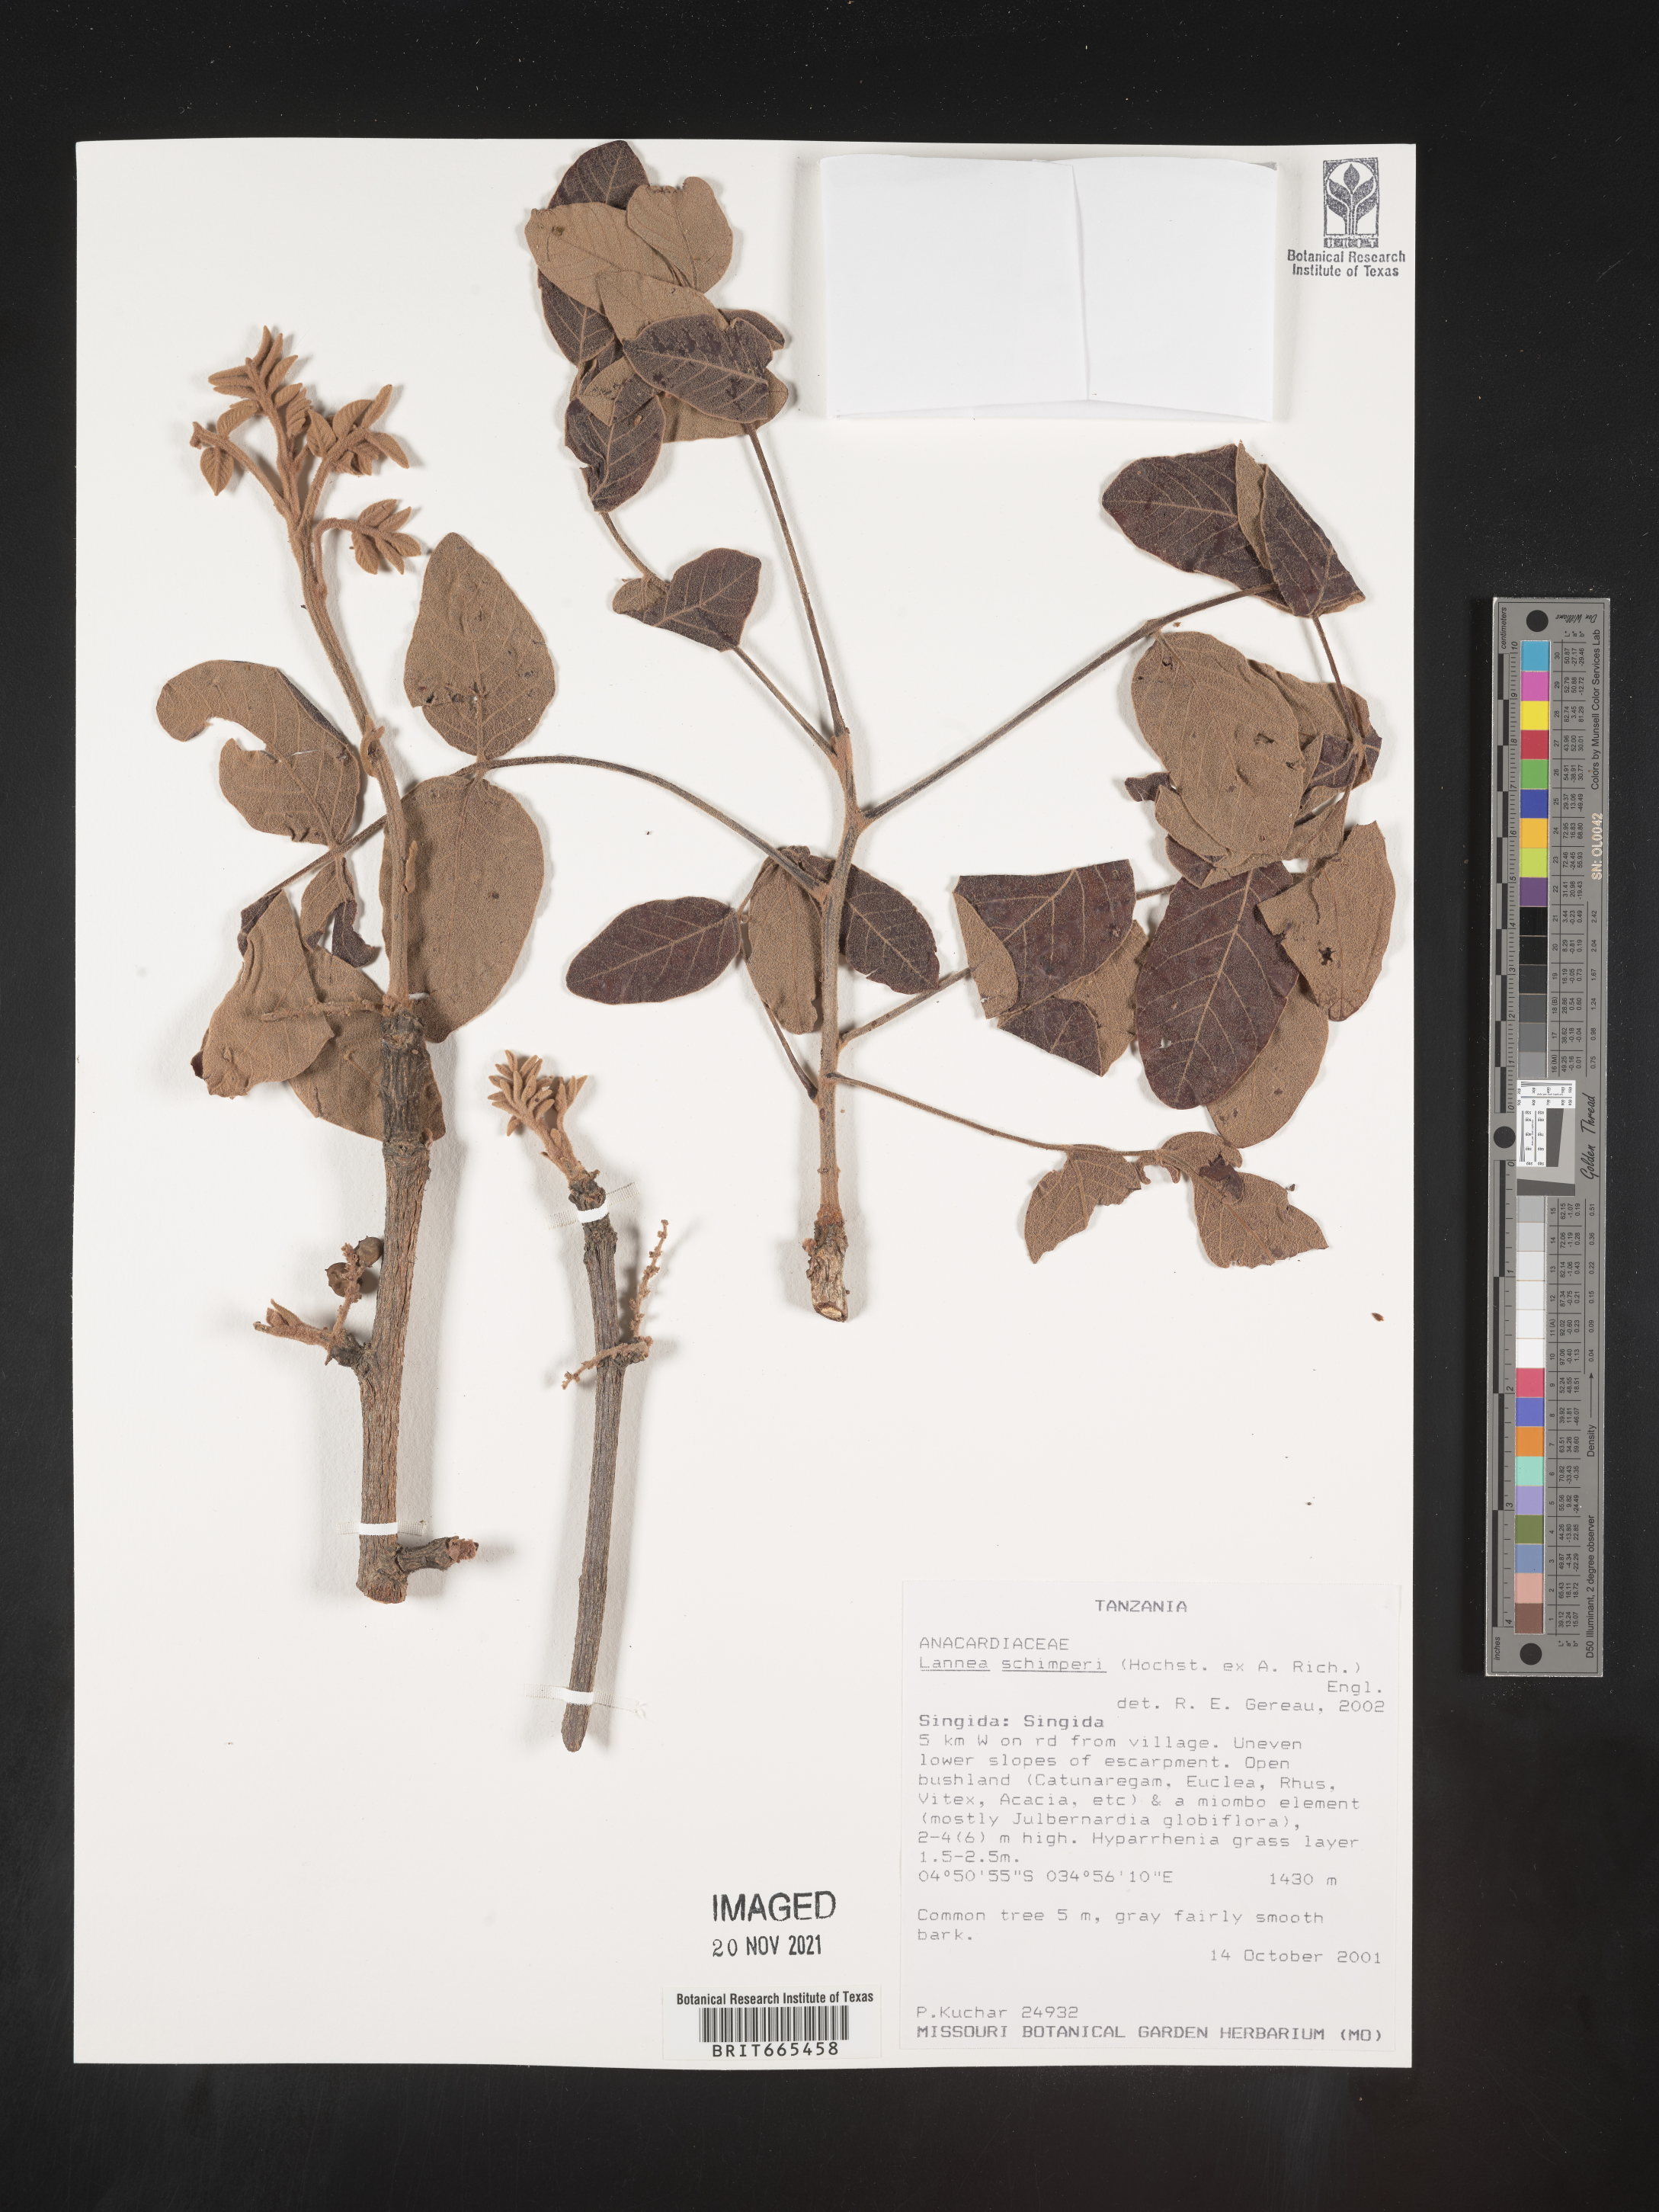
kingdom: Plantae
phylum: Tracheophyta
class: Magnoliopsida
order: Sapindales
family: Anacardiaceae
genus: Lannea
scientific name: Lannea
